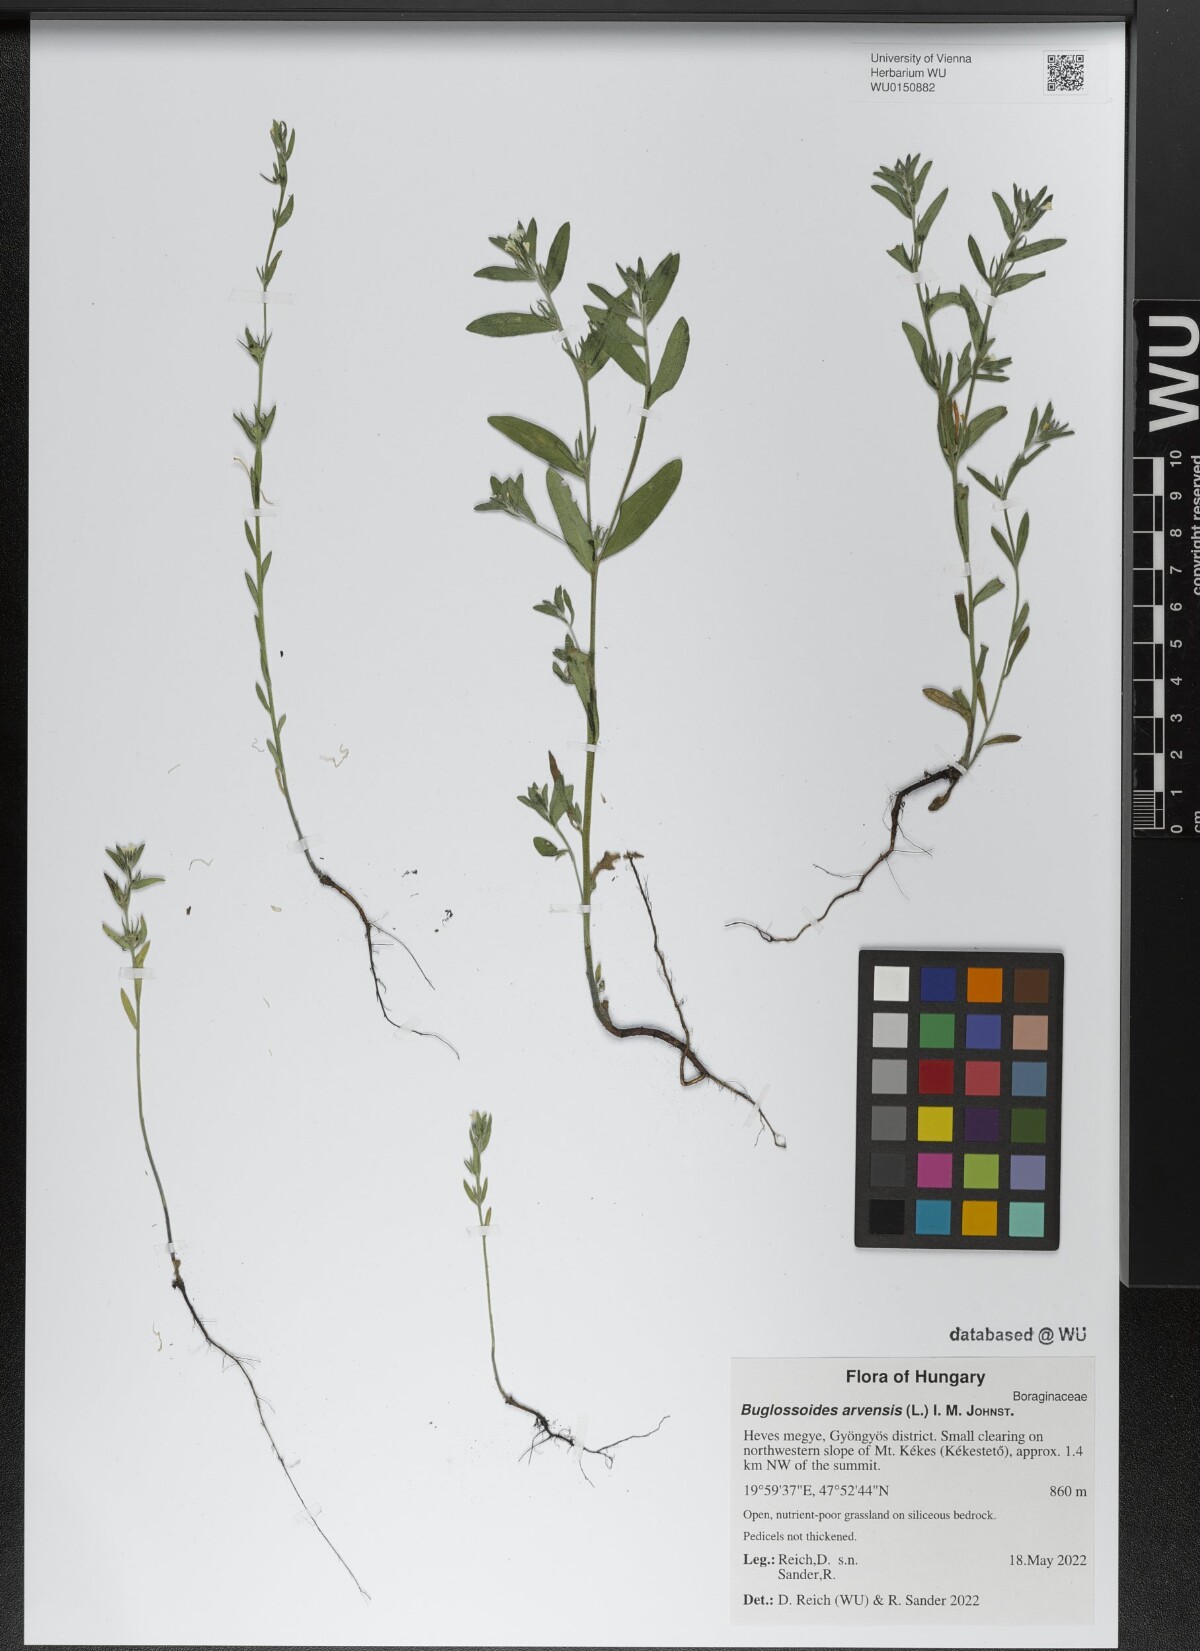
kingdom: Plantae
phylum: Tracheophyta
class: Magnoliopsida
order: Boraginales
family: Boraginaceae
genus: Buglossoides
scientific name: Buglossoides arvensis
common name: Corn gromwell
